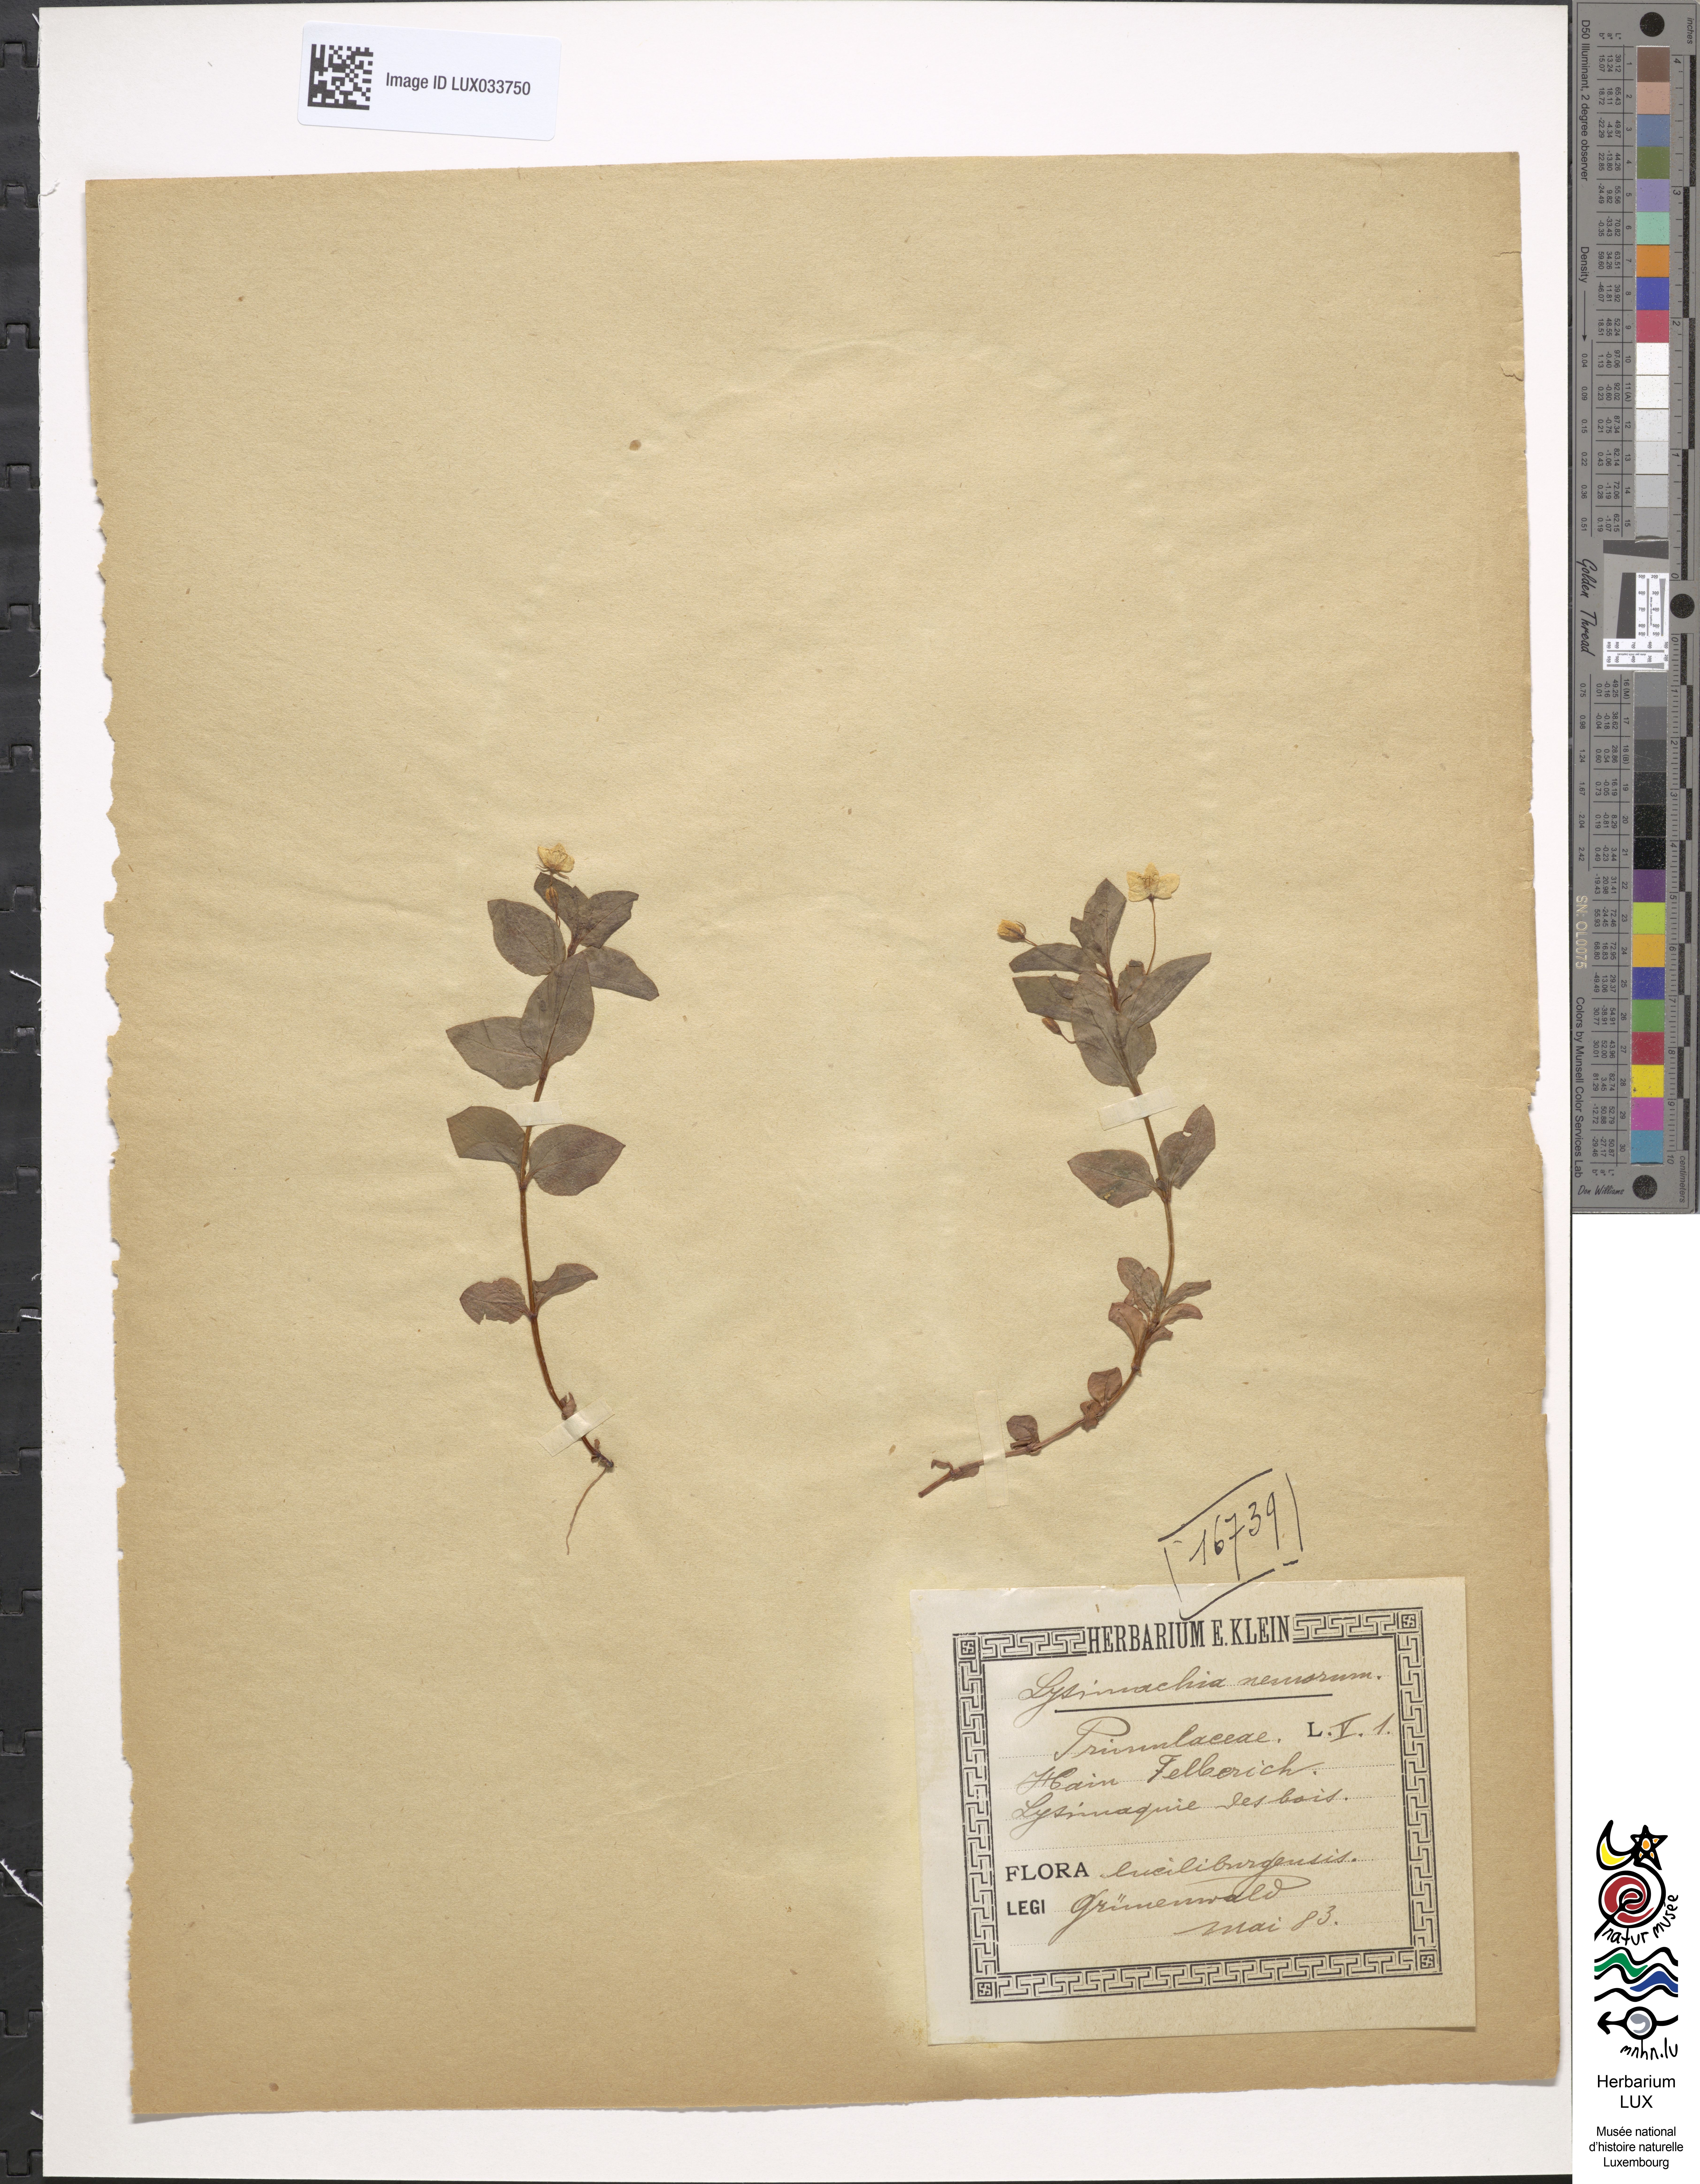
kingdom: Plantae
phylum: Tracheophyta
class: Magnoliopsida
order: Ericales
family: Primulaceae
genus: Lysimachia
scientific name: Lysimachia nemorum
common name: Yellow pimpernel
